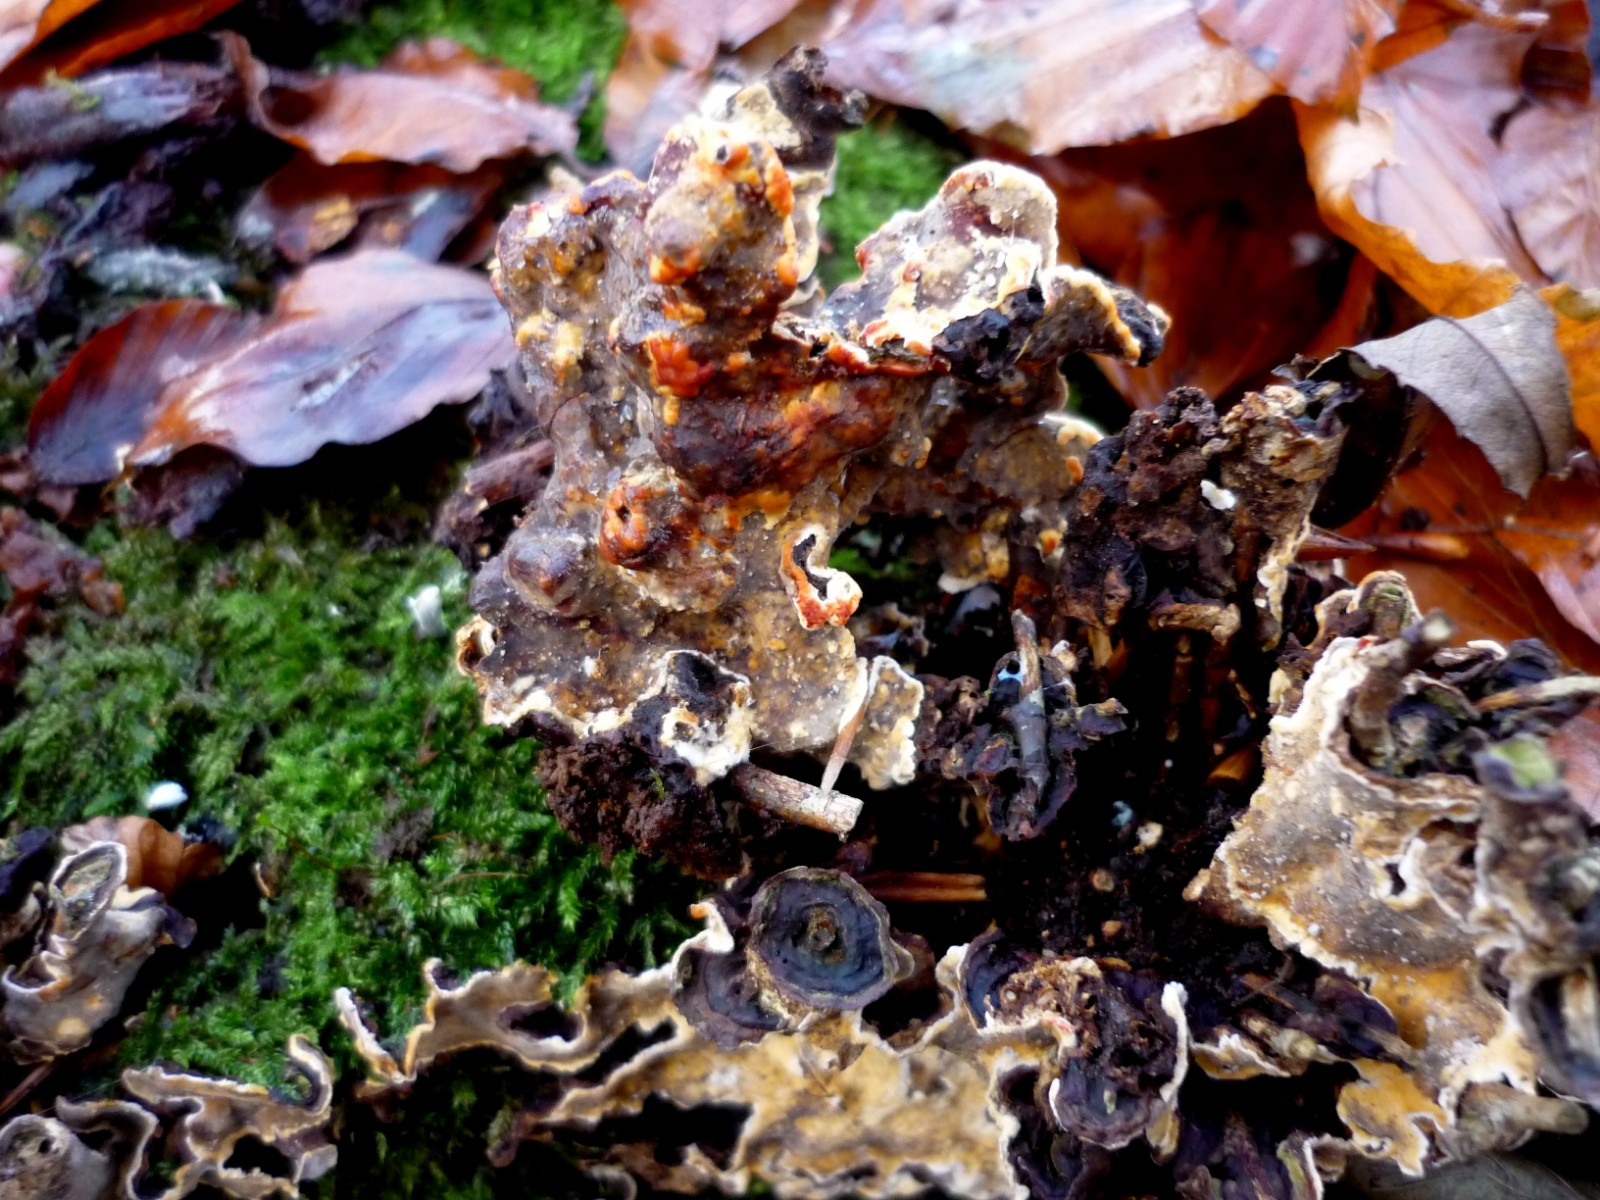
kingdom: Fungi
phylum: Basidiomycota
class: Agaricomycetes
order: Russulales
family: Stereaceae
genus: Stereum
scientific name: Stereum rugosum
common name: rynket lædersvamp
